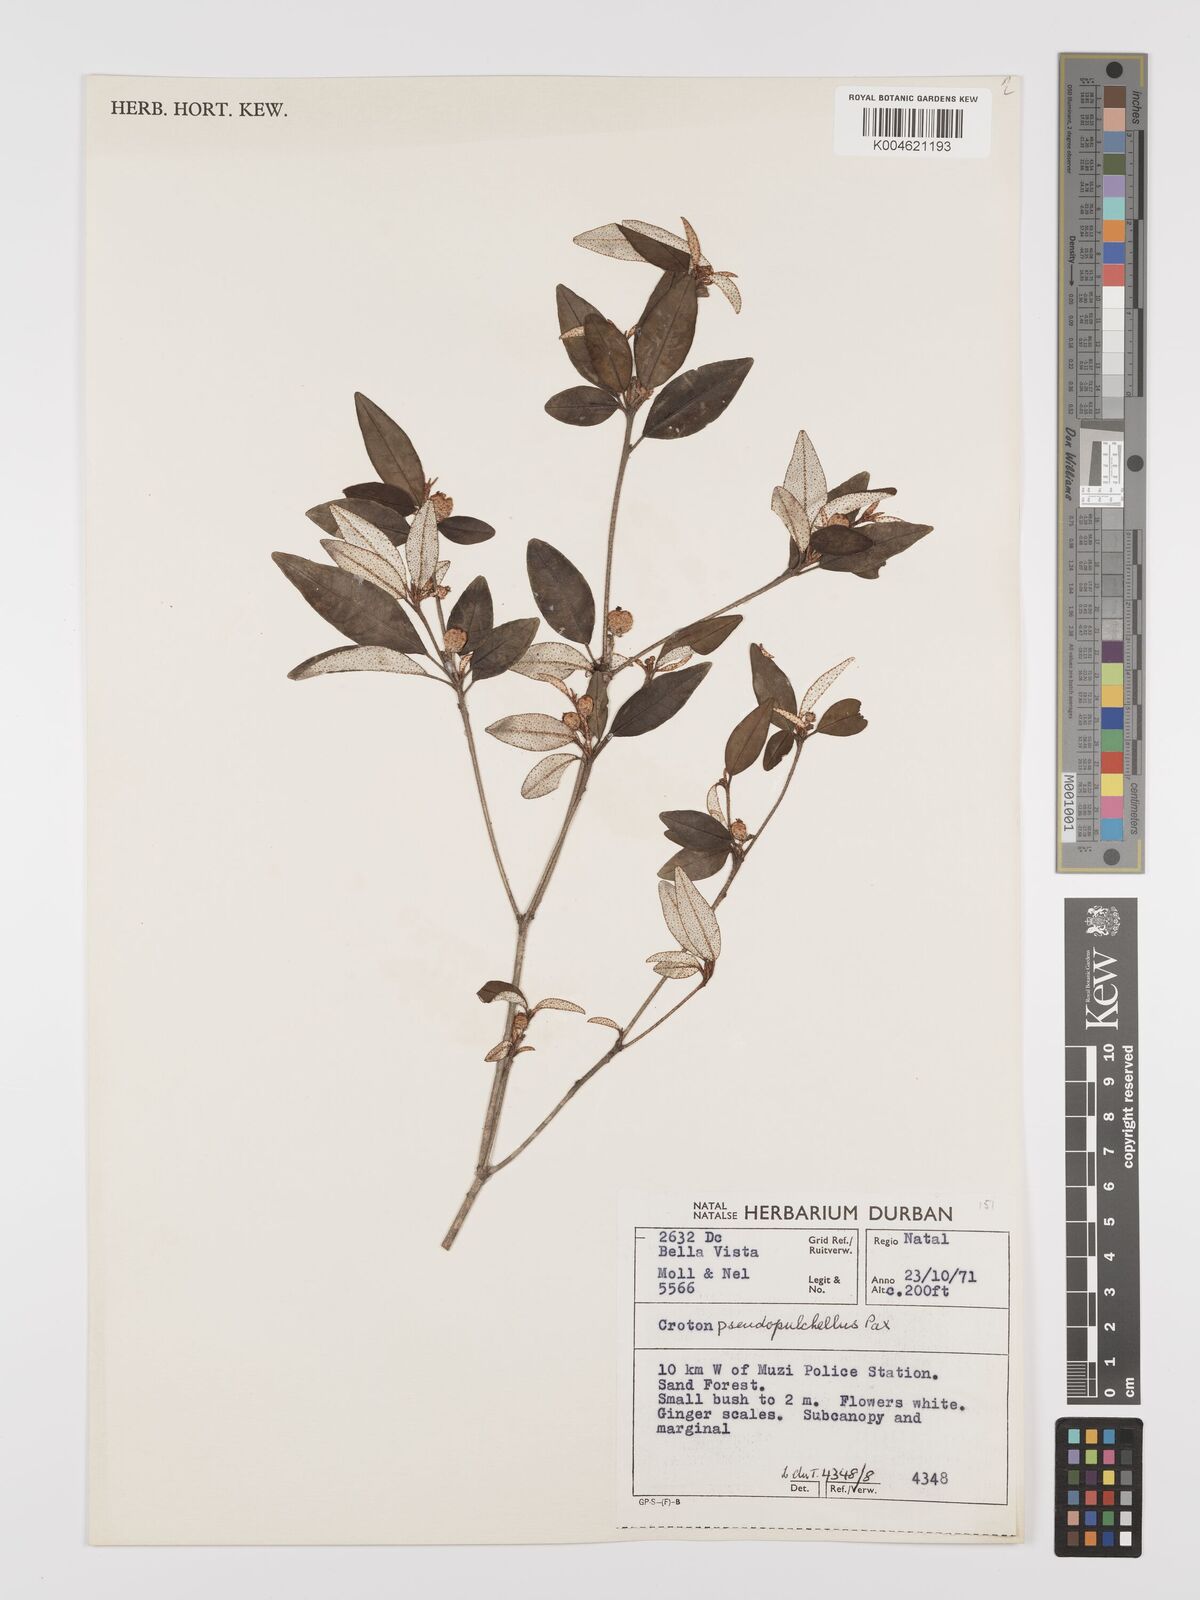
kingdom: Plantae
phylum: Tracheophyta
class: Magnoliopsida
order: Malpighiales
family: Euphorbiaceae
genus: Croton
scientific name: Croton pseudopulchellus
